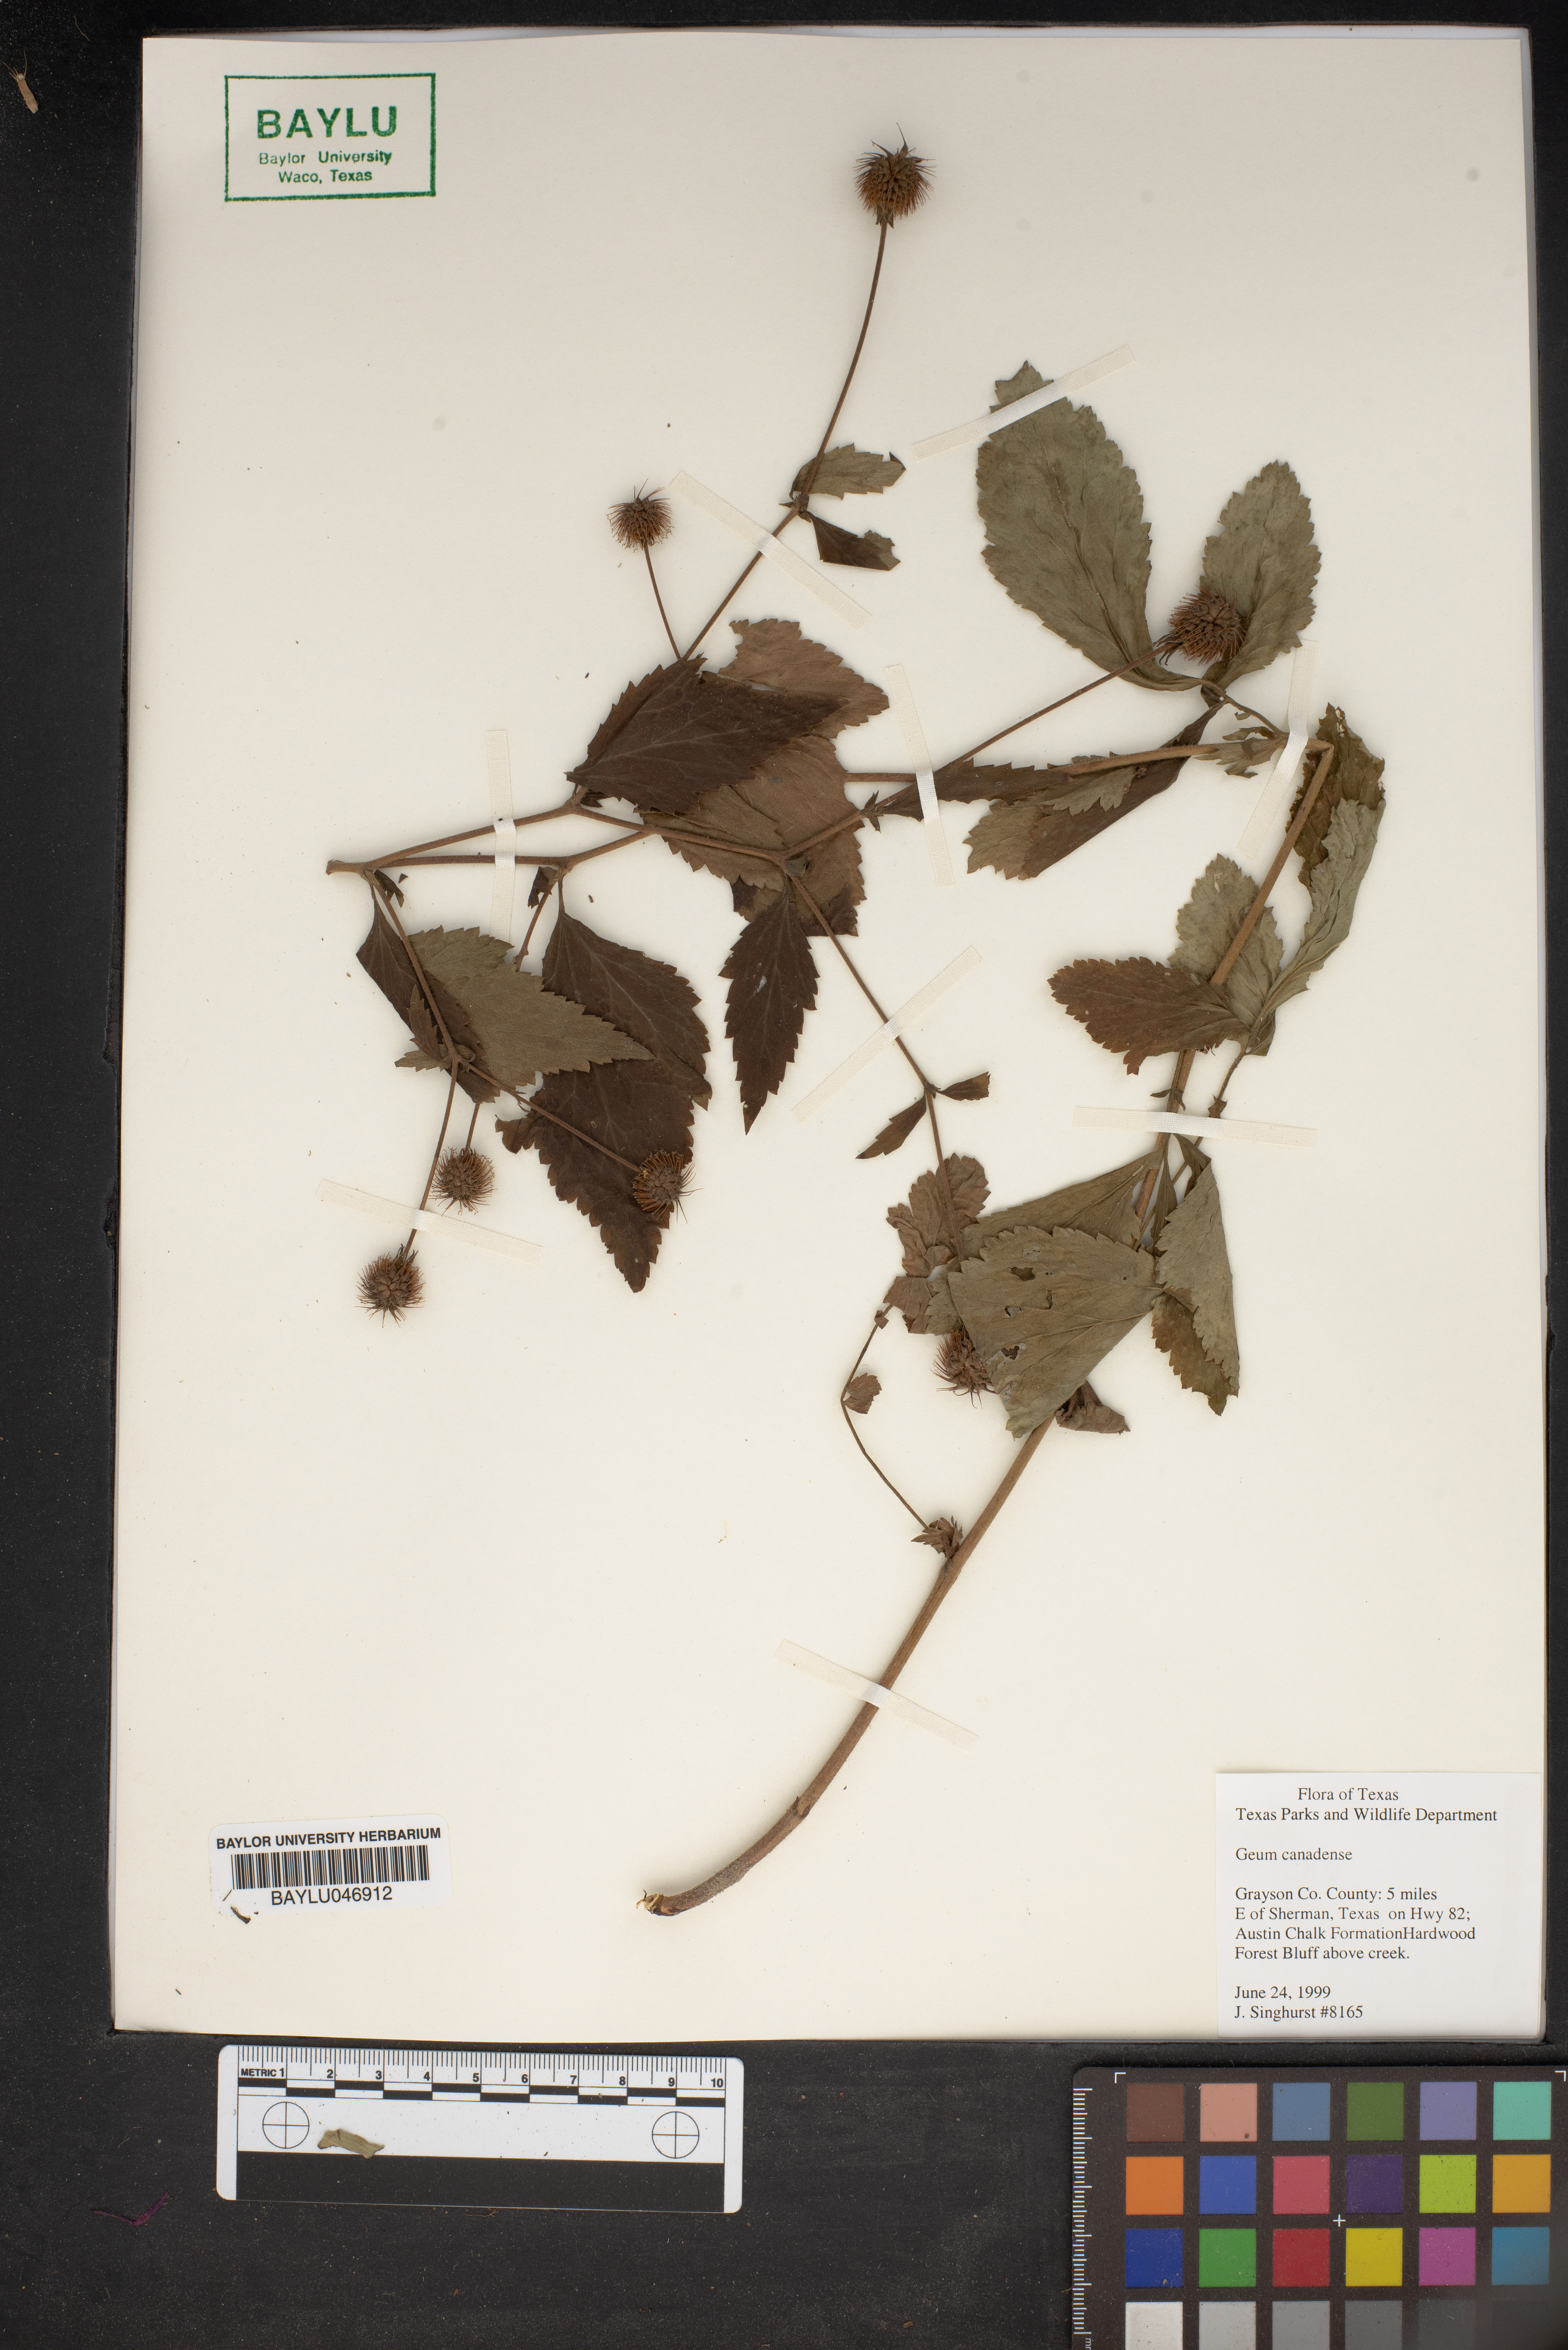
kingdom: Plantae
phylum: Tracheophyta
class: Magnoliopsida
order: Rosales
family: Rosaceae
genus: Geum
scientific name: Geum canadense
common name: White avens
